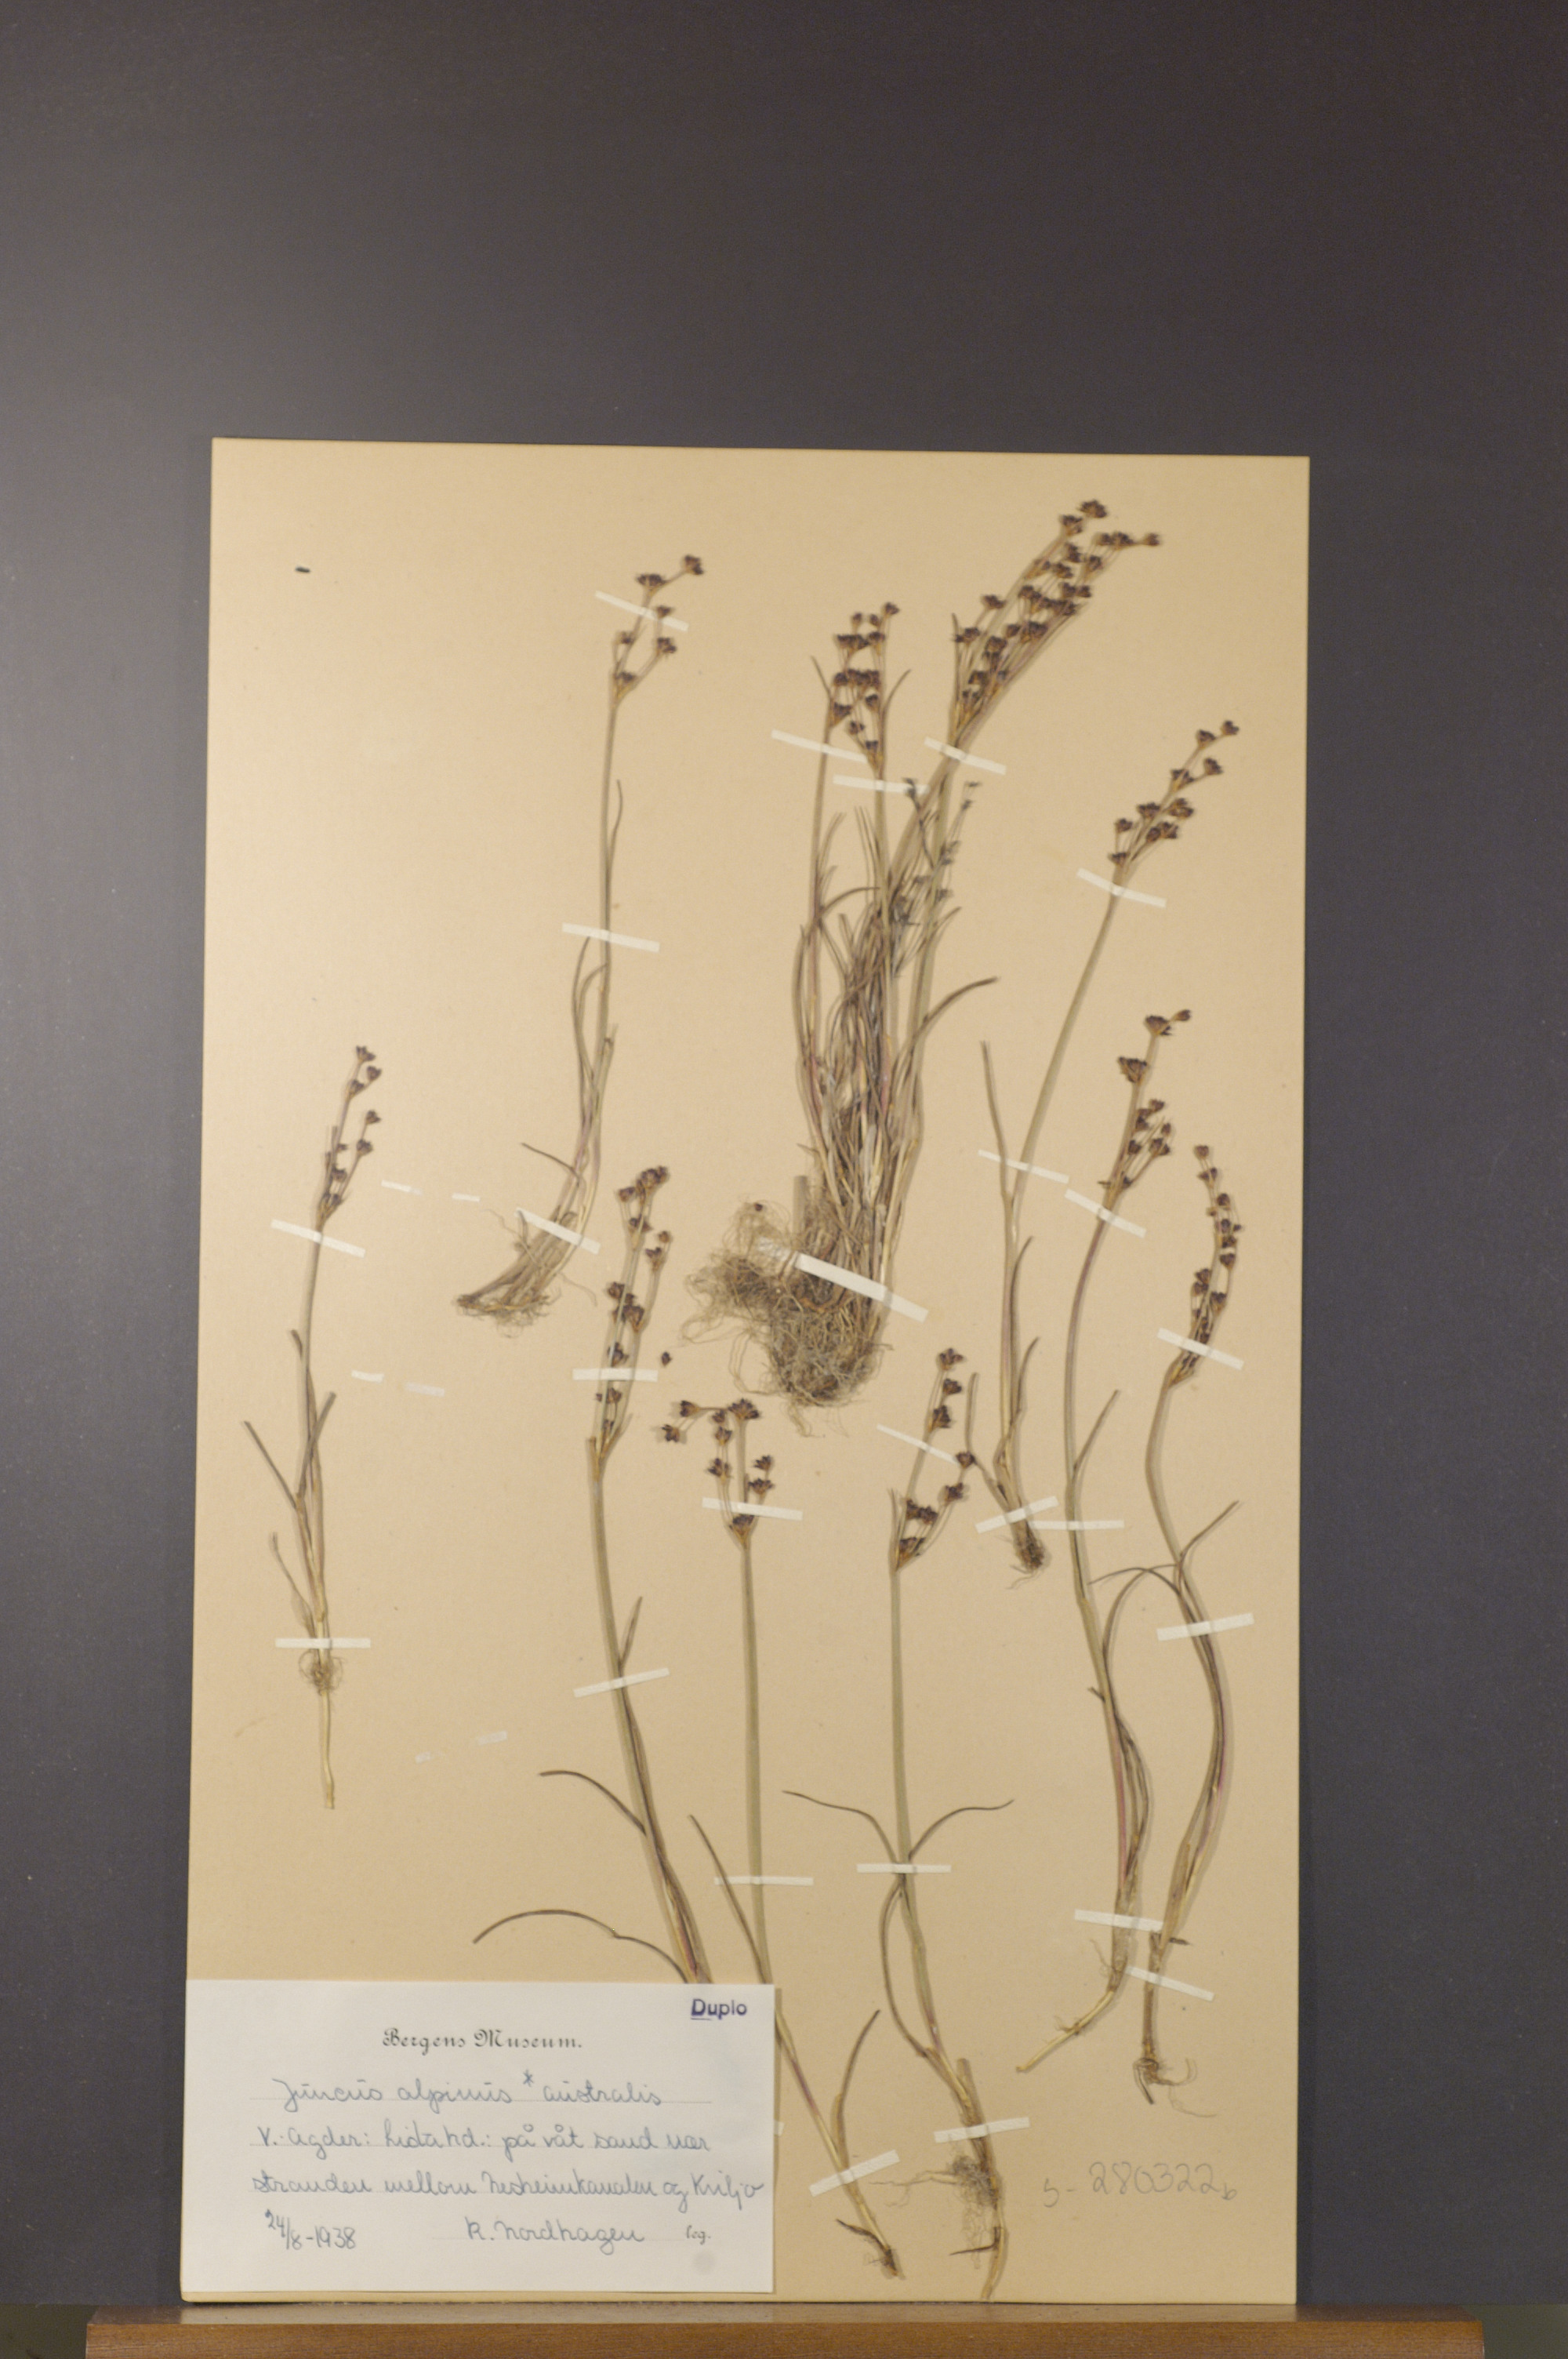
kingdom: Plantae
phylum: Tracheophyta
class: Liliopsida
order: Poales
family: Juncaceae
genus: Juncus
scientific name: Juncus alpinoarticulatus
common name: Alpine rush
